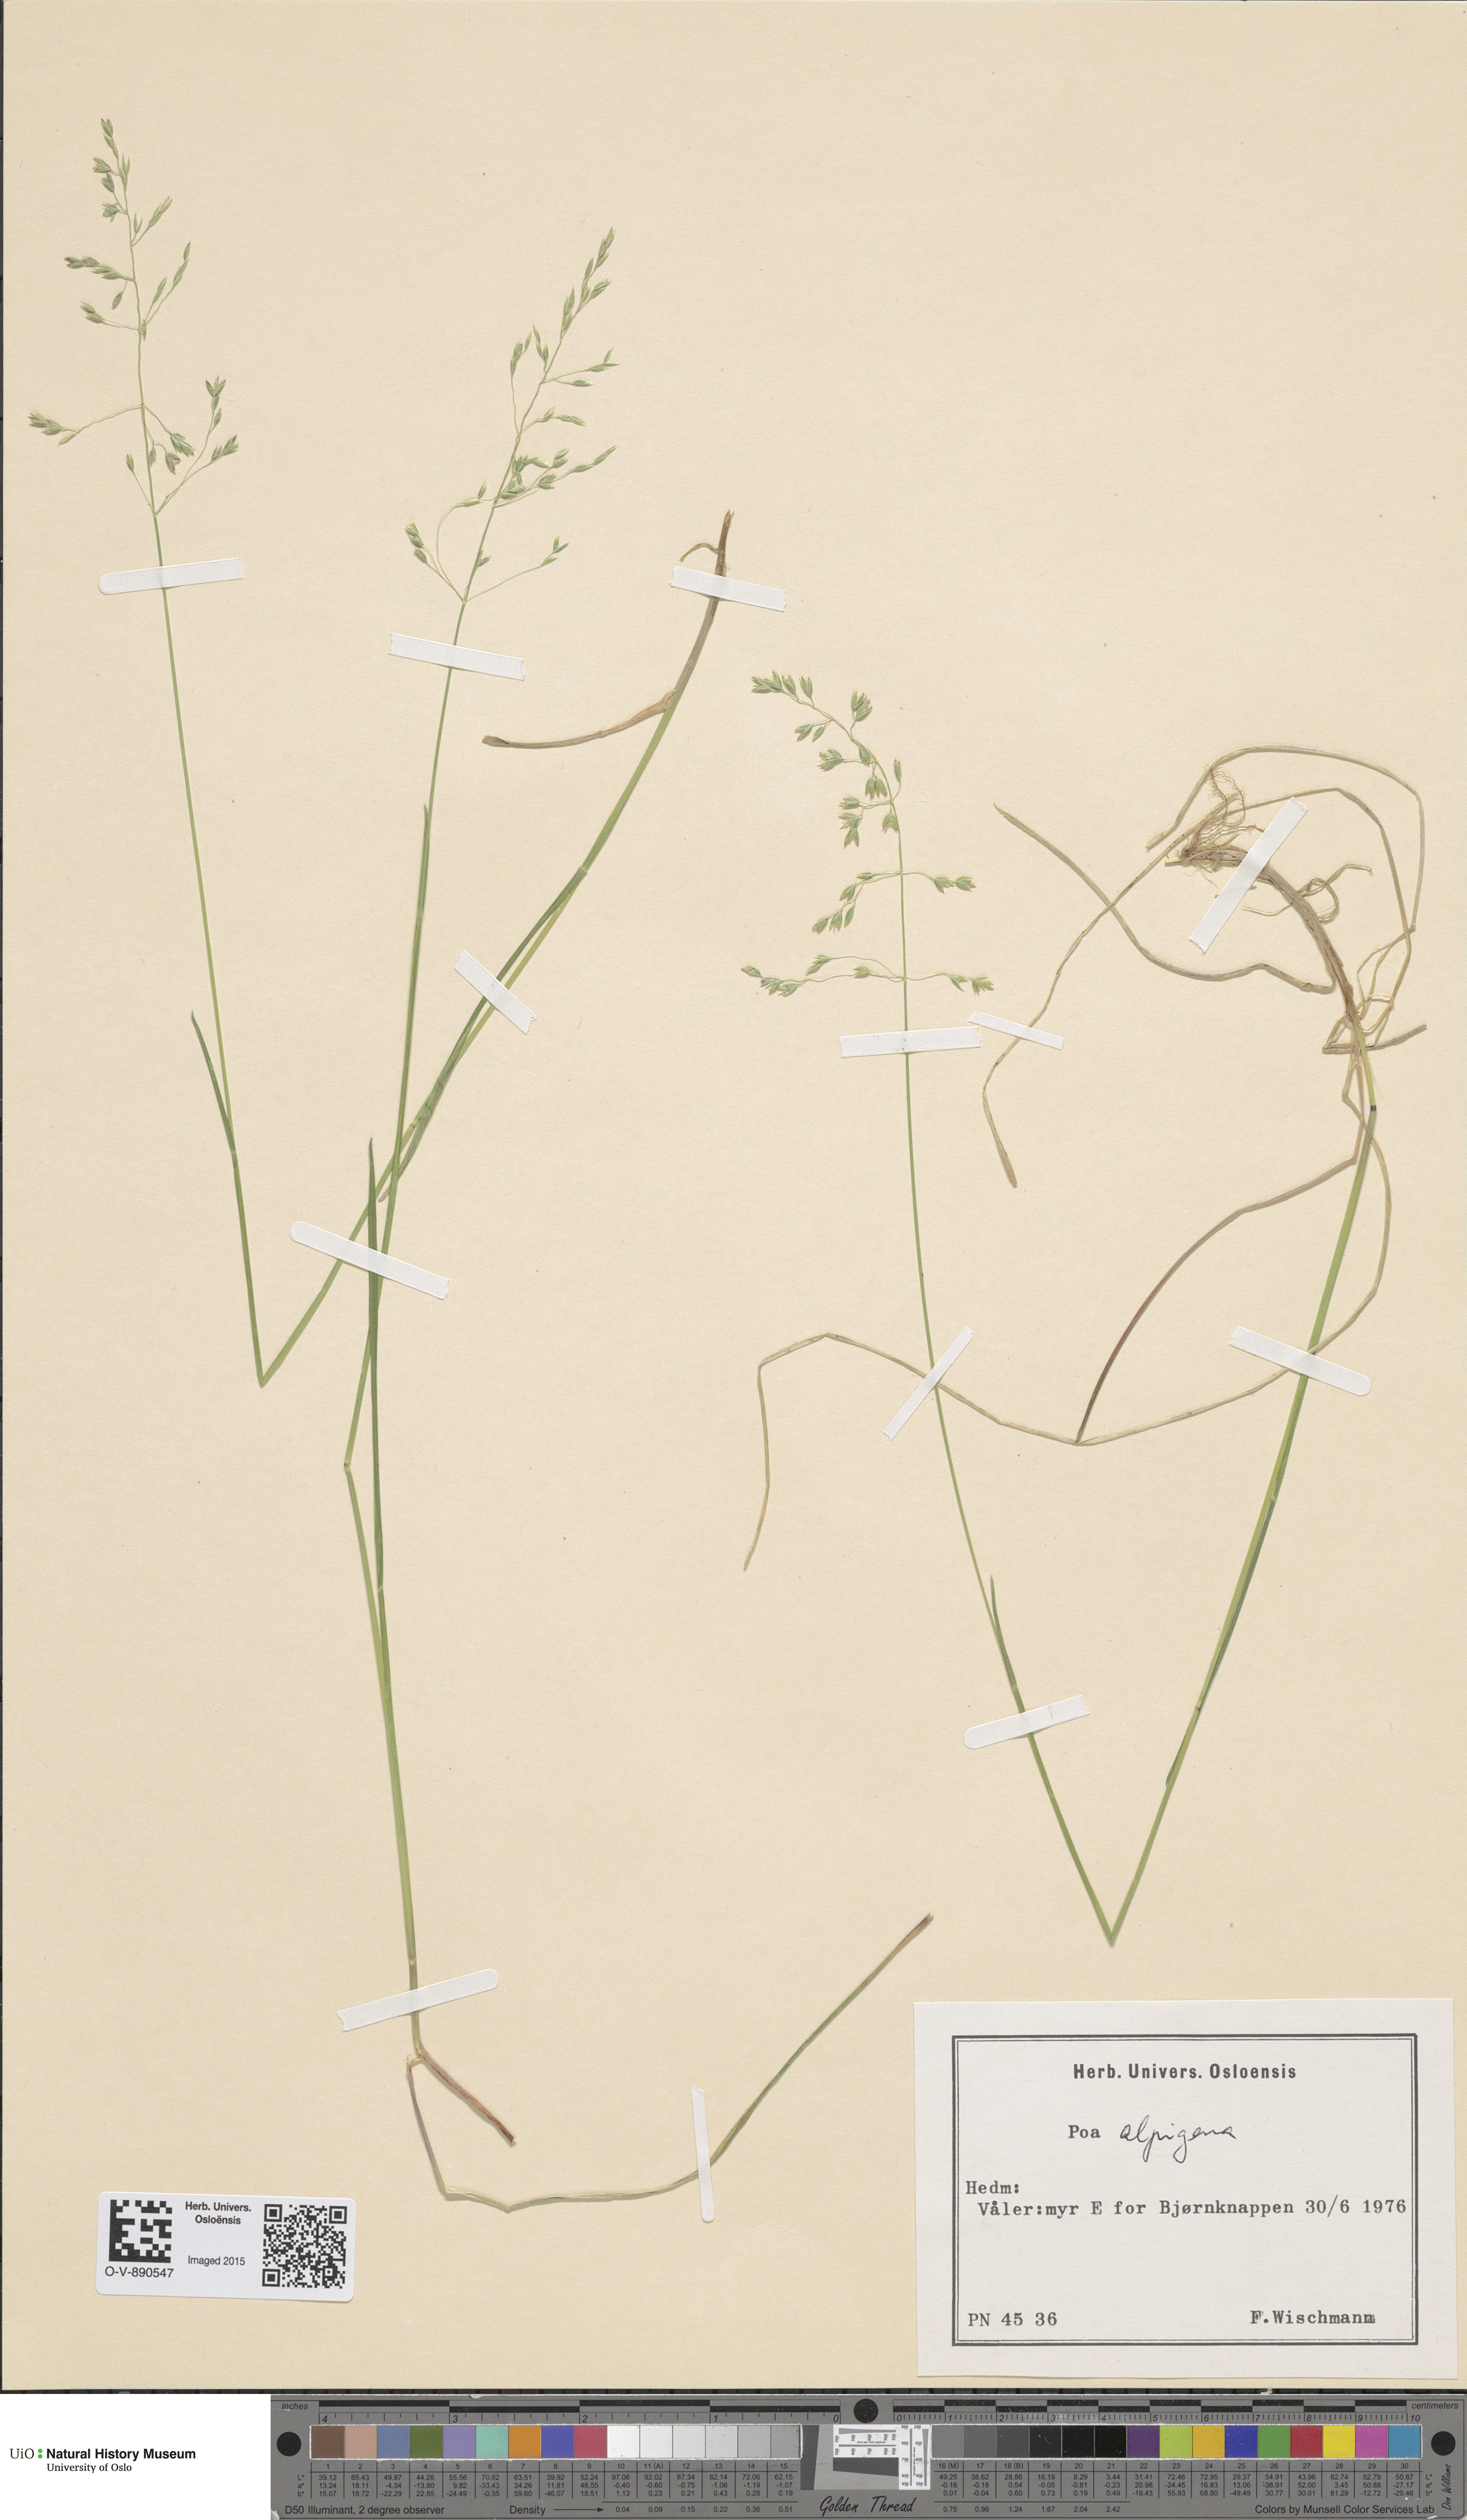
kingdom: Plantae
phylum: Tracheophyta
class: Liliopsida
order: Poales
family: Poaceae
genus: Poa
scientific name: Poa alpigena
